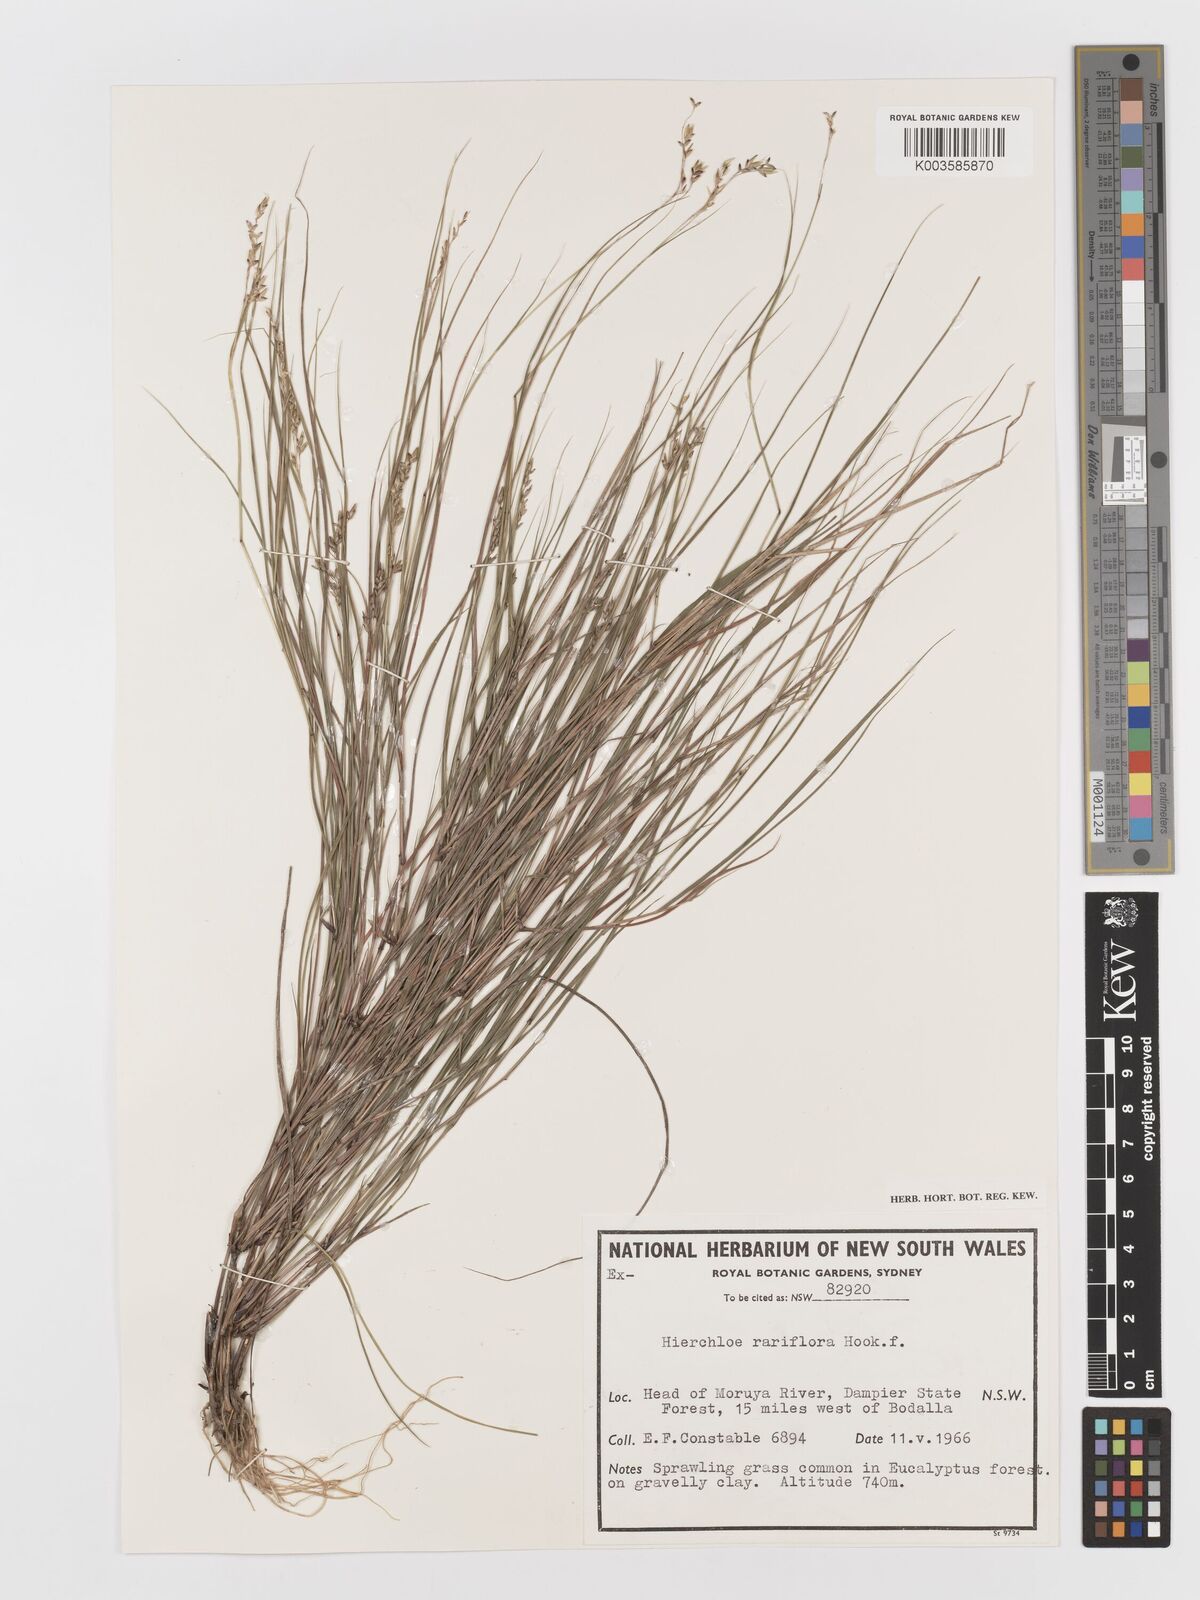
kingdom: Plantae
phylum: Tracheophyta
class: Liliopsida
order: Poales
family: Poaceae
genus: Anthoxanthum
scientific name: Anthoxanthum rariflorum
